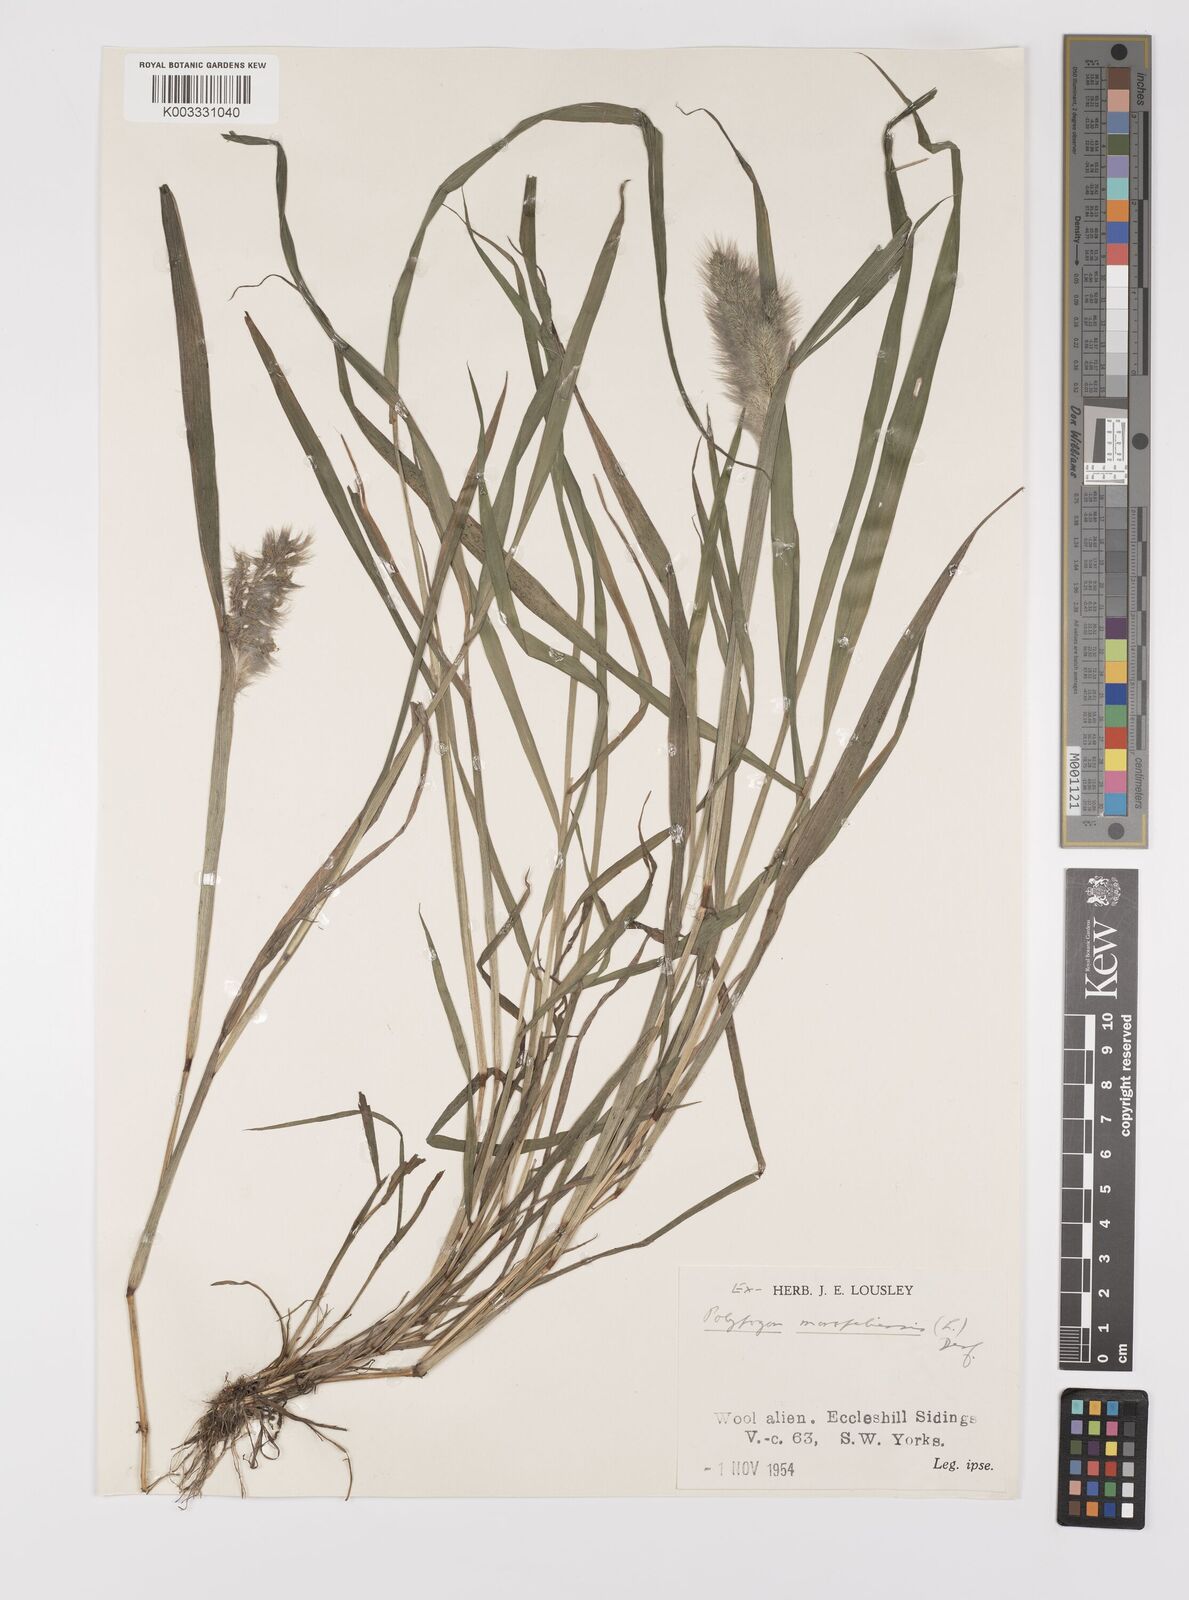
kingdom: Plantae
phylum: Tracheophyta
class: Liliopsida
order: Poales
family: Poaceae
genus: Polypogon
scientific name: Polypogon monspeliensis
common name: Annual rabbitsfoot grass
